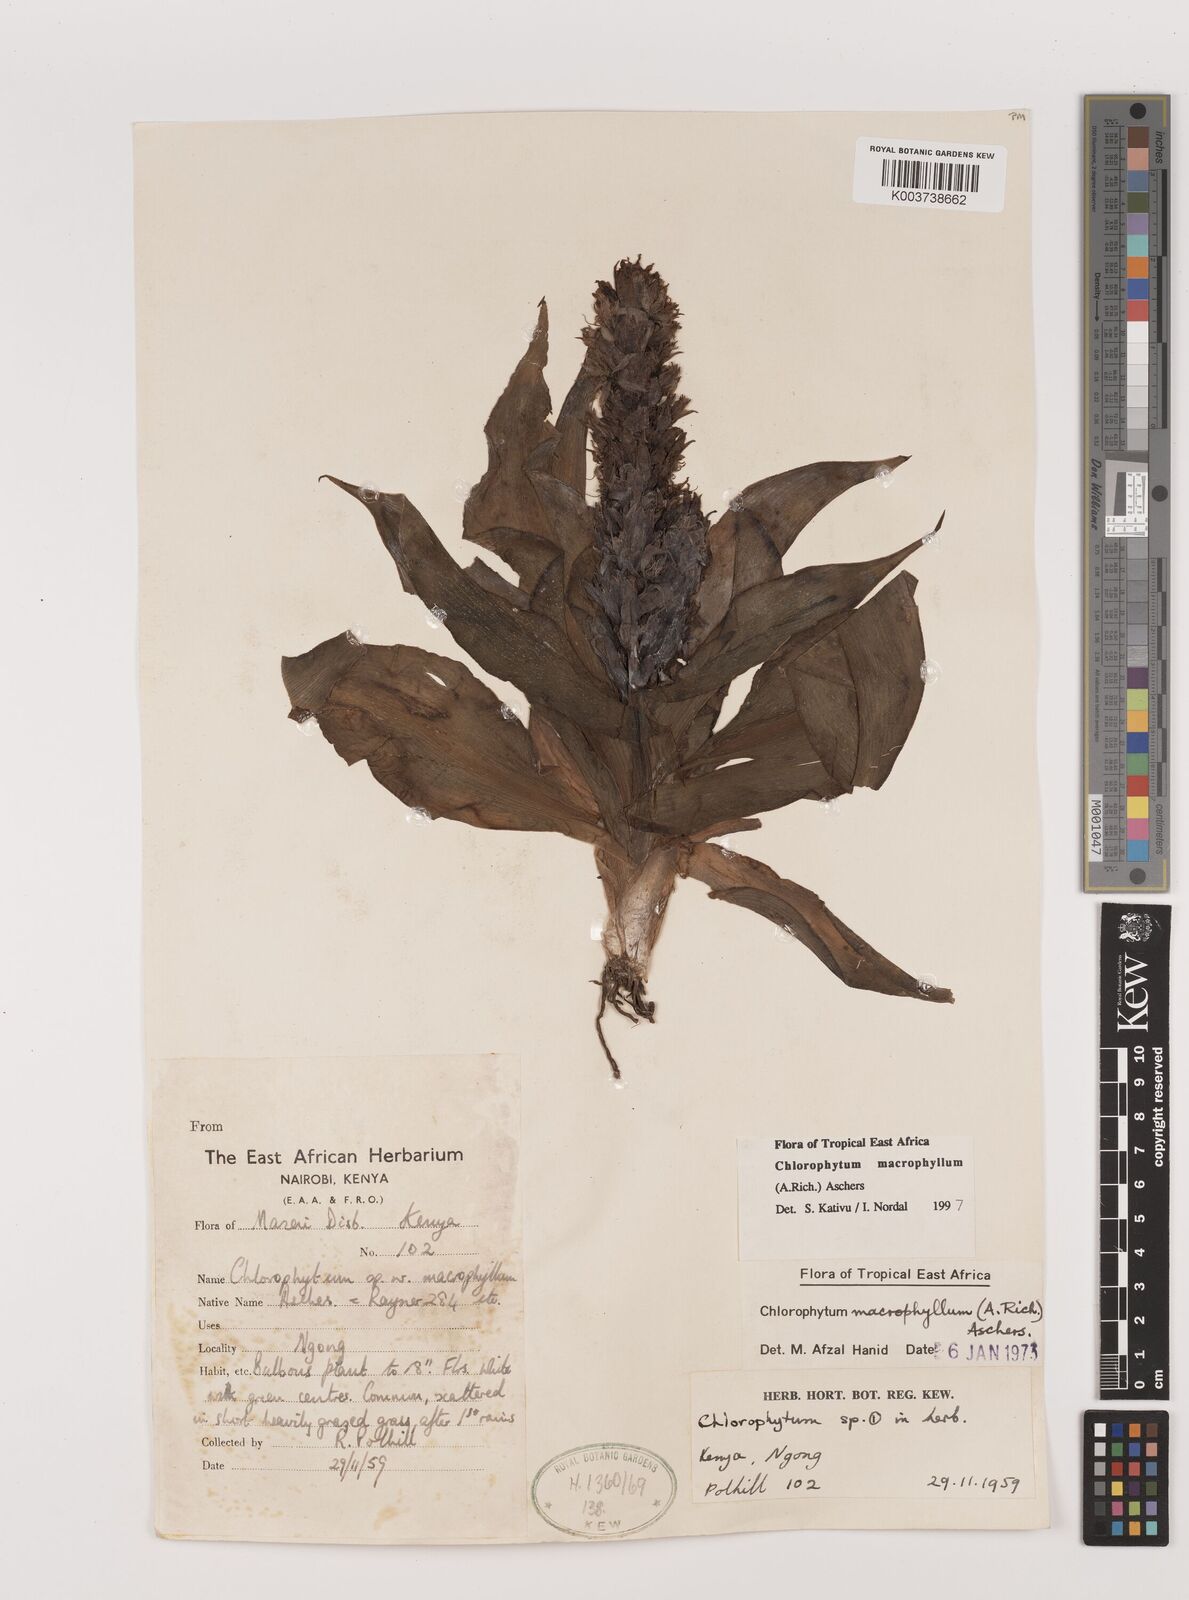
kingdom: Plantae
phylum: Tracheophyta
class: Liliopsida
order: Asparagales
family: Asparagaceae
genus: Chlorophytum
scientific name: Chlorophytum macrophyllum
